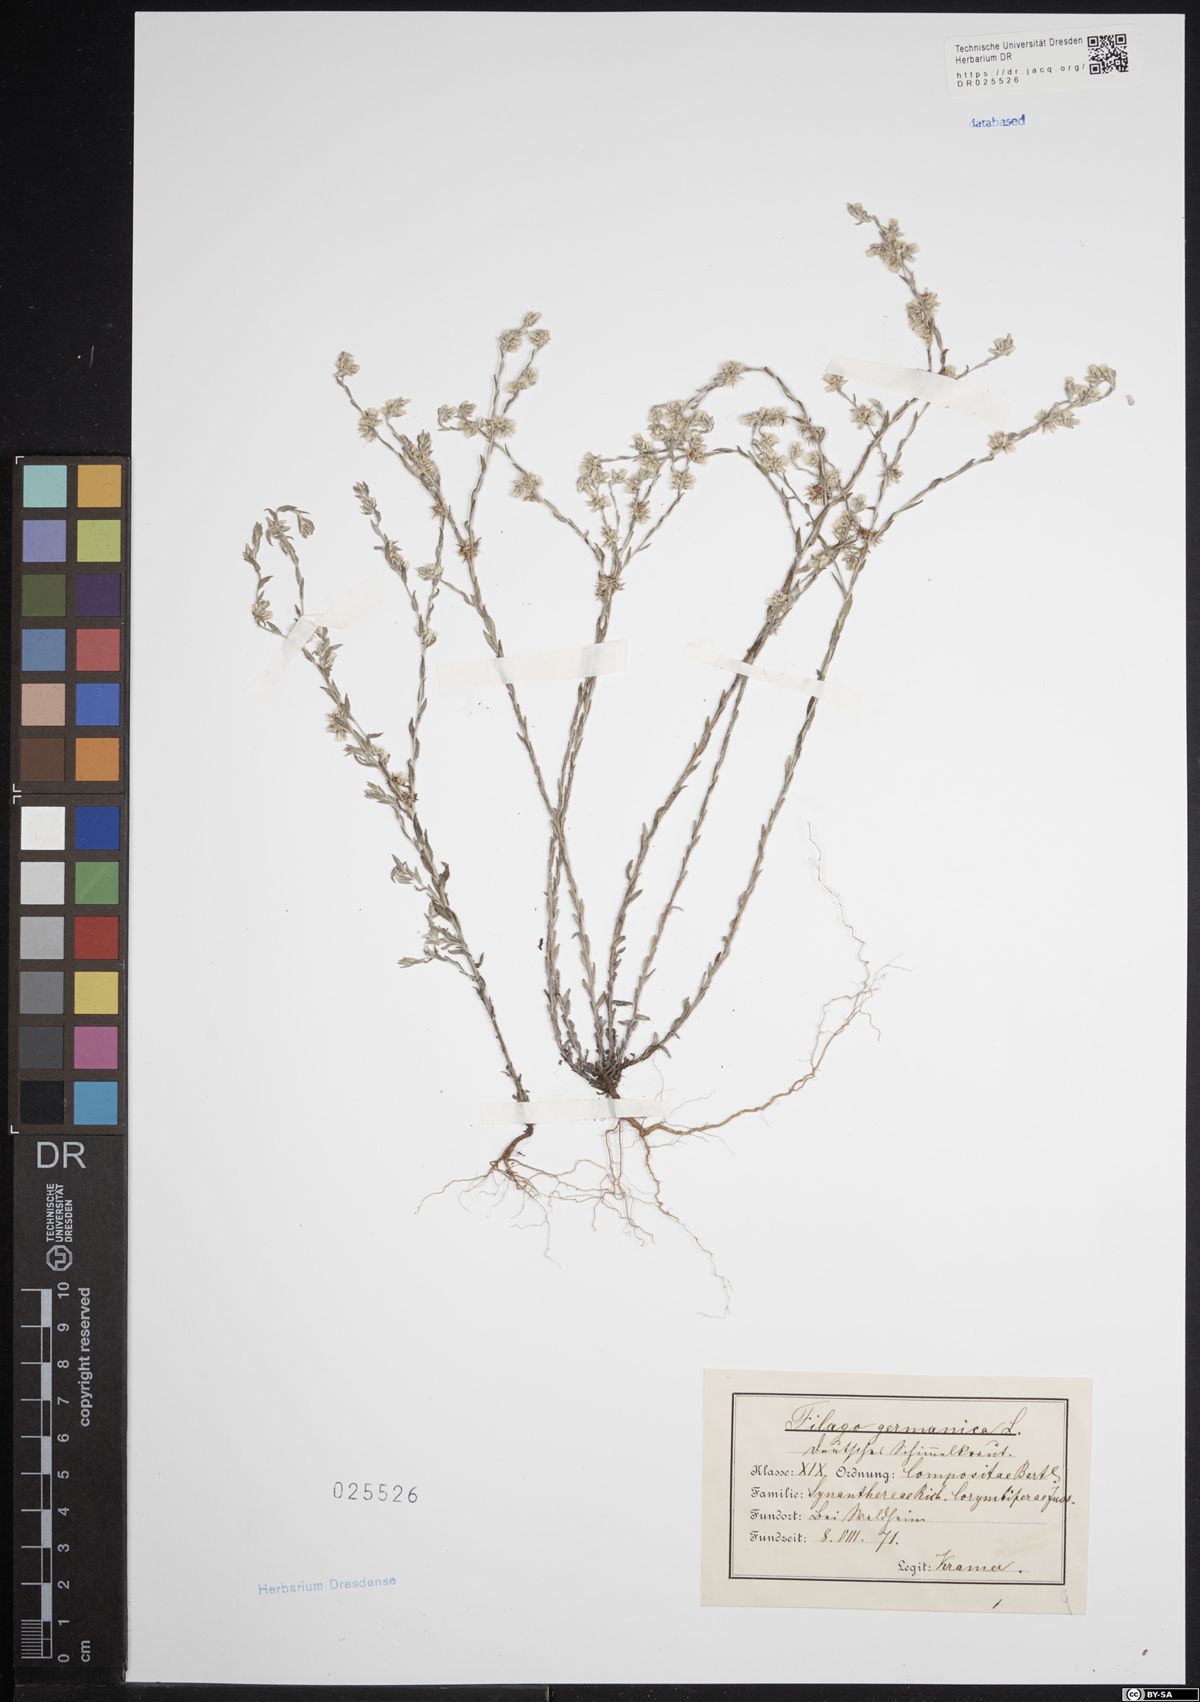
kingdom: Plantae
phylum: Tracheophyta
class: Magnoliopsida
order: Asterales
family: Asteraceae
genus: Filago
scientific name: Filago germanica
